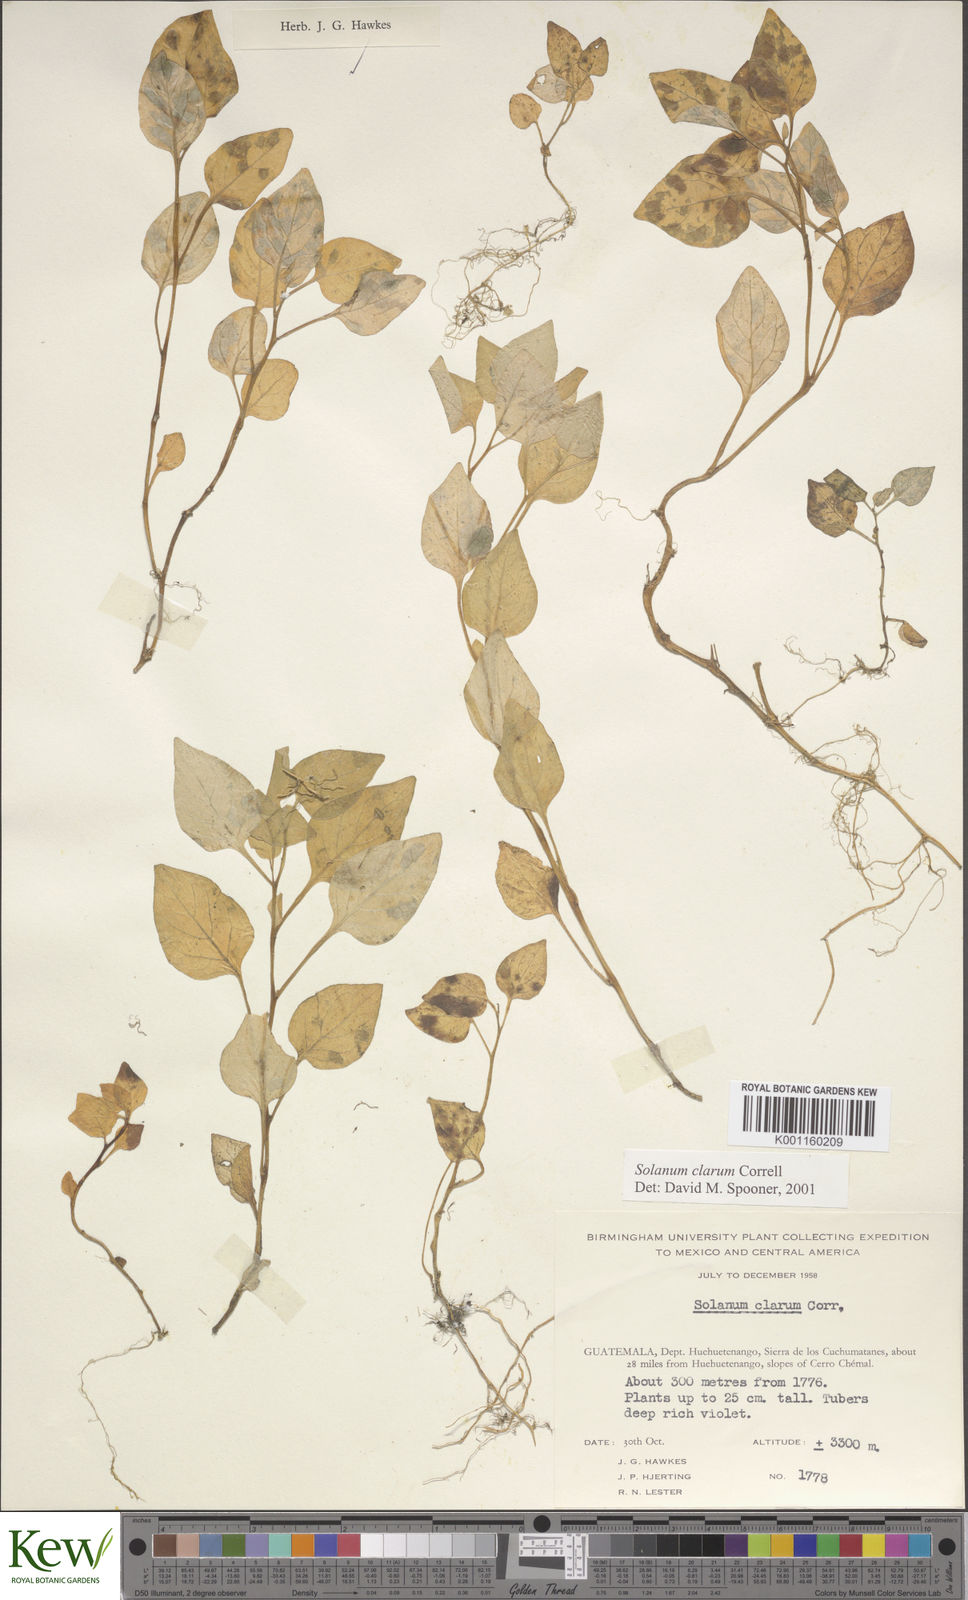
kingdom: Plantae
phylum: Tracheophyta
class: Magnoliopsida
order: Solanales
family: Solanaceae
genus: Solanum
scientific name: Solanum clarum
